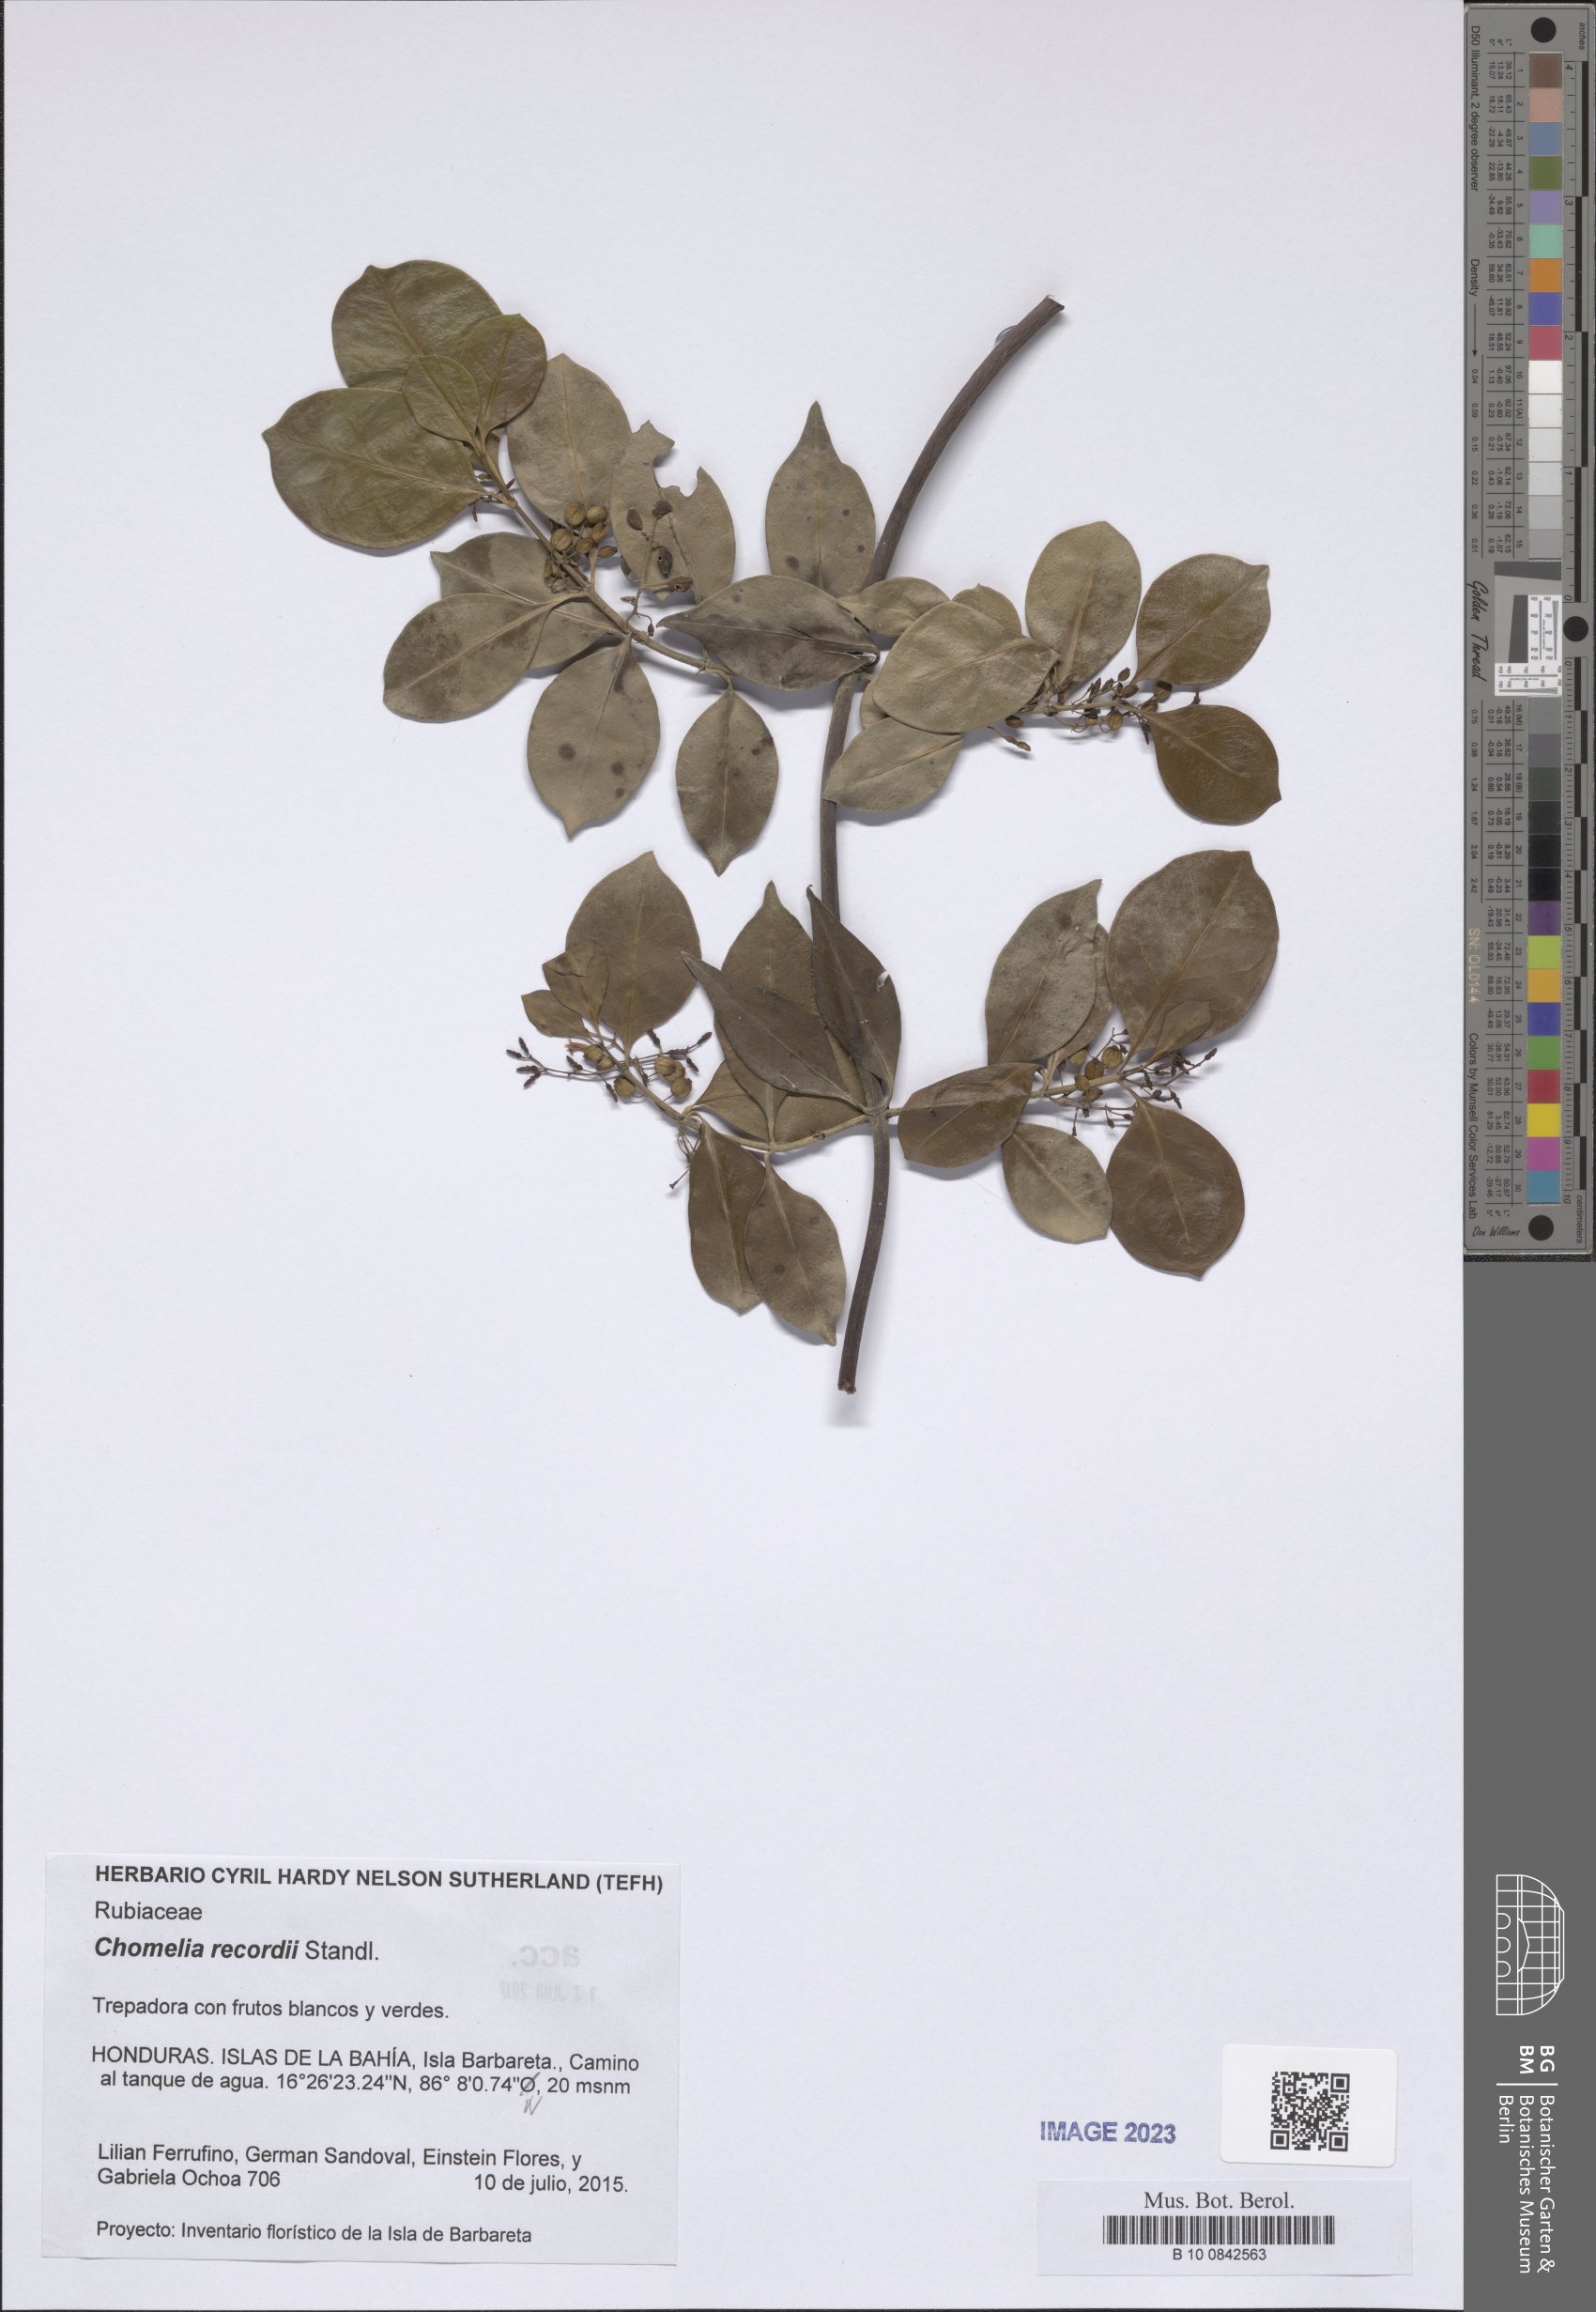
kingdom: Plantae
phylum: Tracheophyta
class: Magnoliopsida
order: Gentianales
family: Rubiaceae
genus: Chomelia
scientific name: Chomelia recordii
